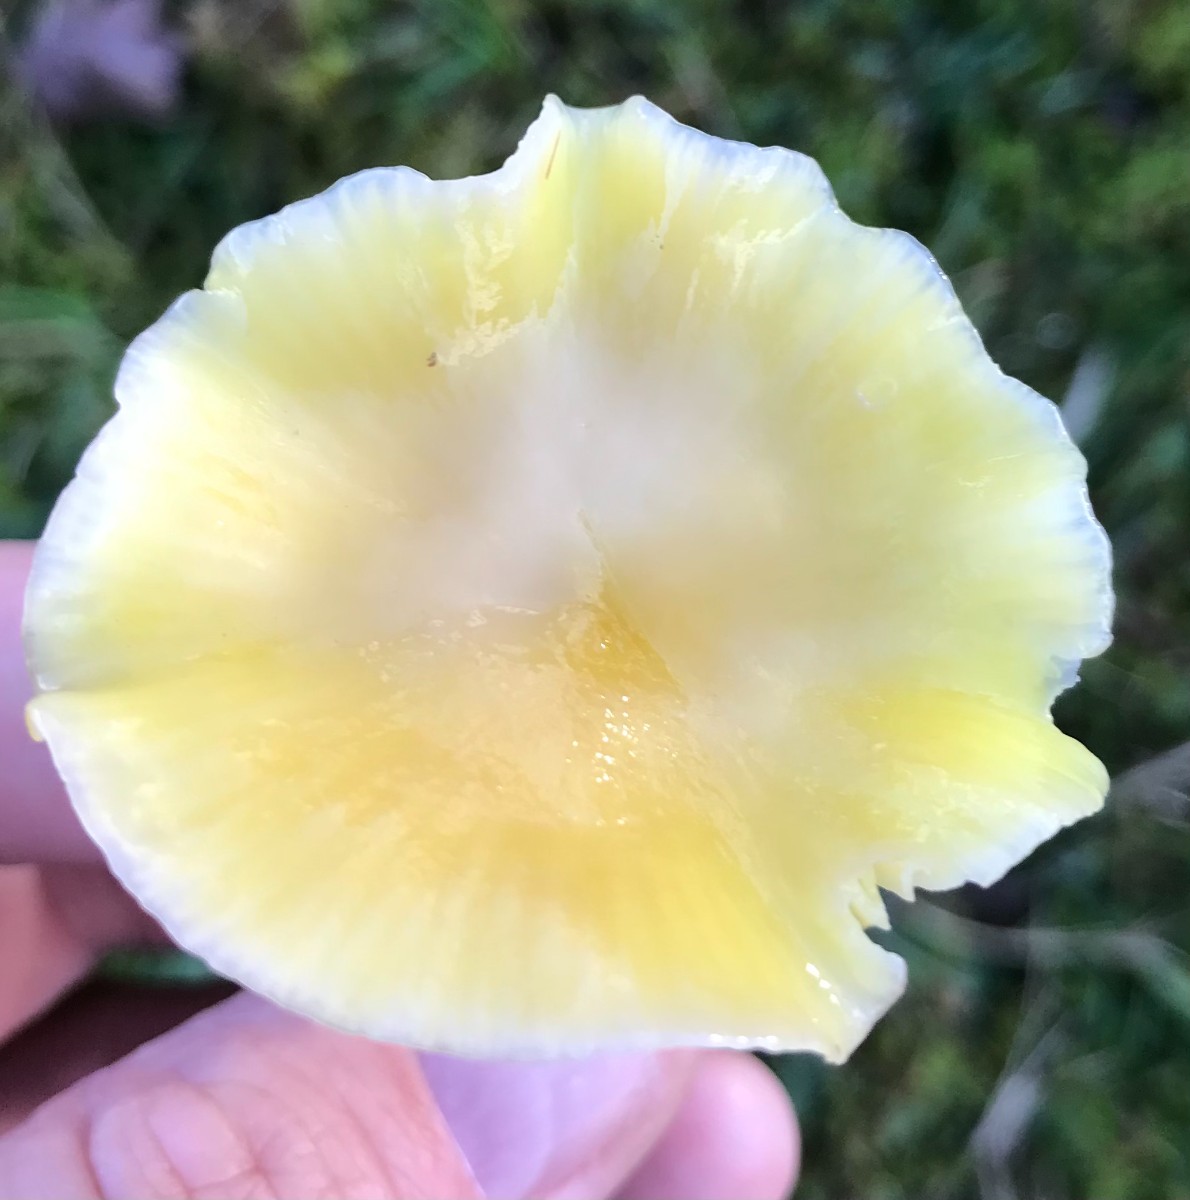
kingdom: Fungi
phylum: Basidiomycota
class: Agaricomycetes
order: Agaricales
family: Hygrophoraceae
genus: Hygrocybe
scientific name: Hygrocybe ceracea
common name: voksgul vokshat
